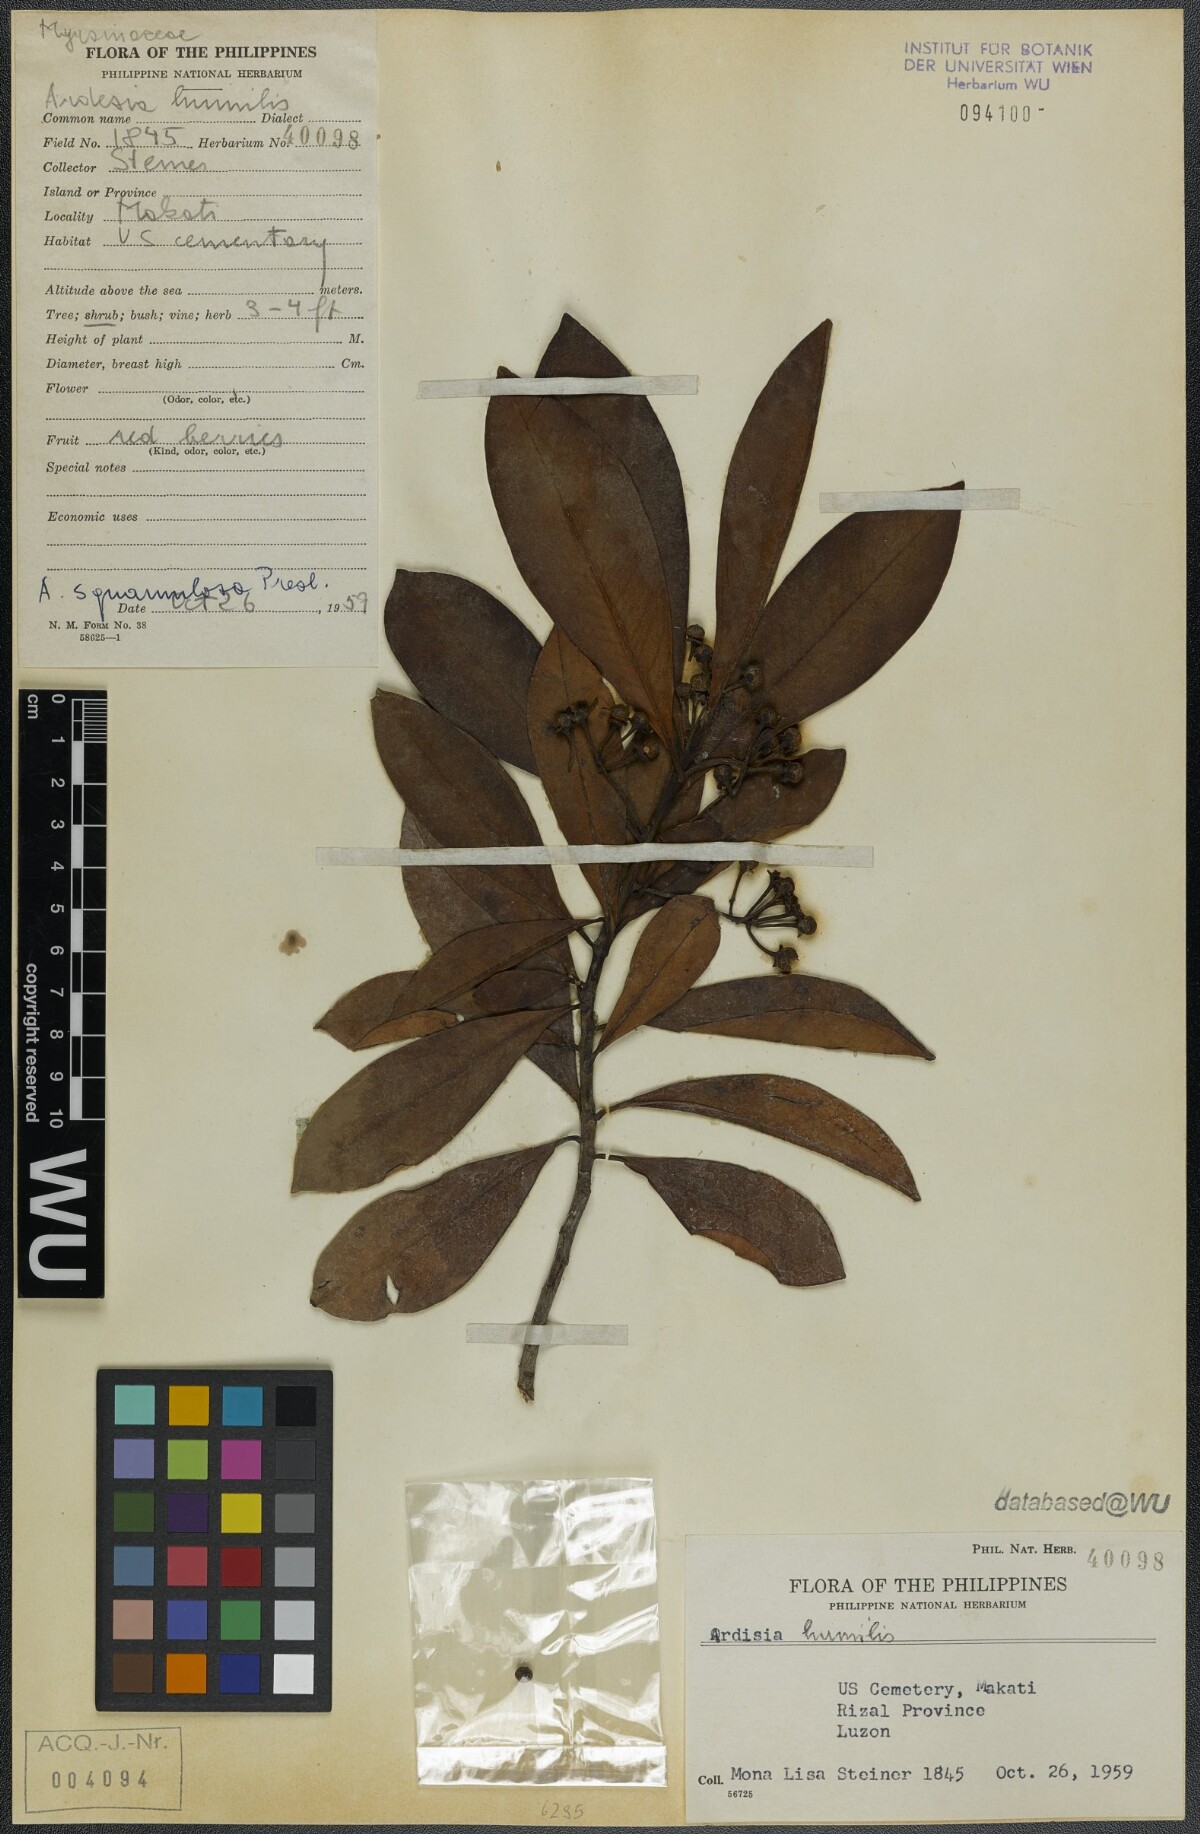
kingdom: Plantae
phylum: Tracheophyta
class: Magnoliopsida
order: Ericales
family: Primulaceae
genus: Ardisia
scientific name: Ardisia humilis
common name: Low shoebutton
